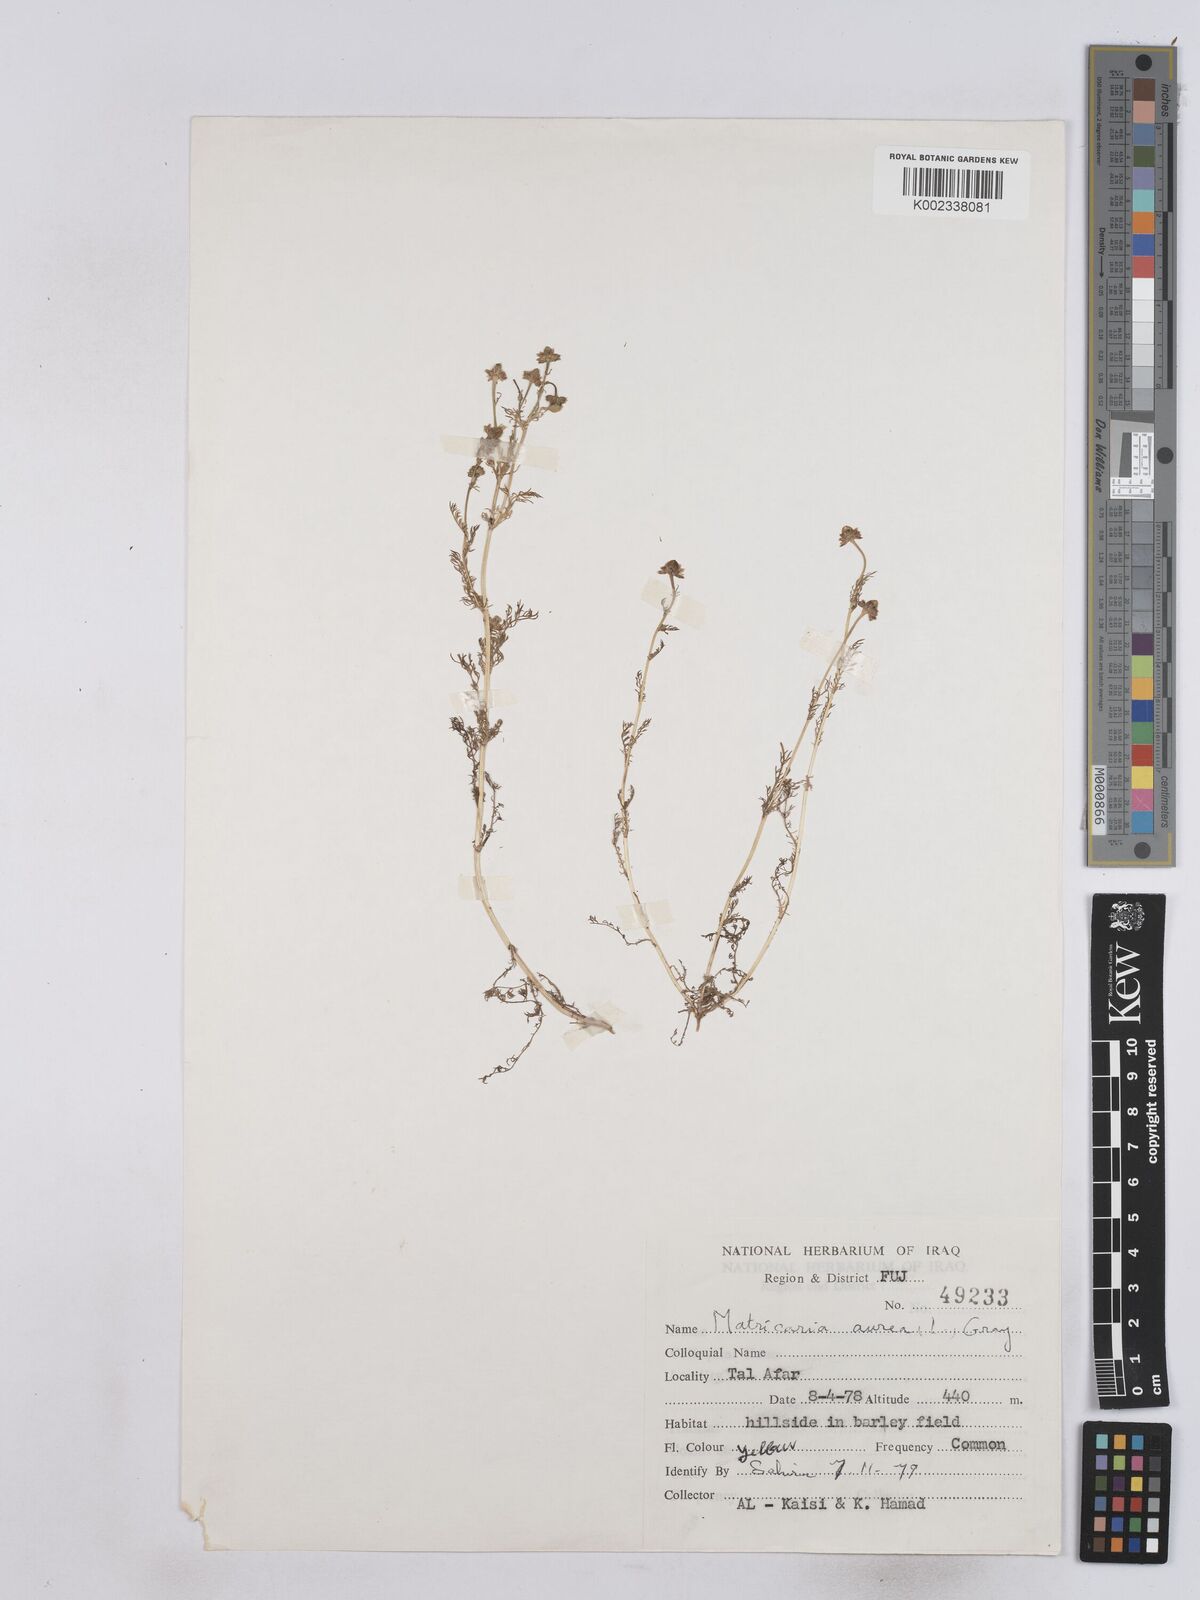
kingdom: Plantae
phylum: Tracheophyta
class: Magnoliopsida
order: Asterales
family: Asteraceae
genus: Matricaria
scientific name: Matricaria aurea
